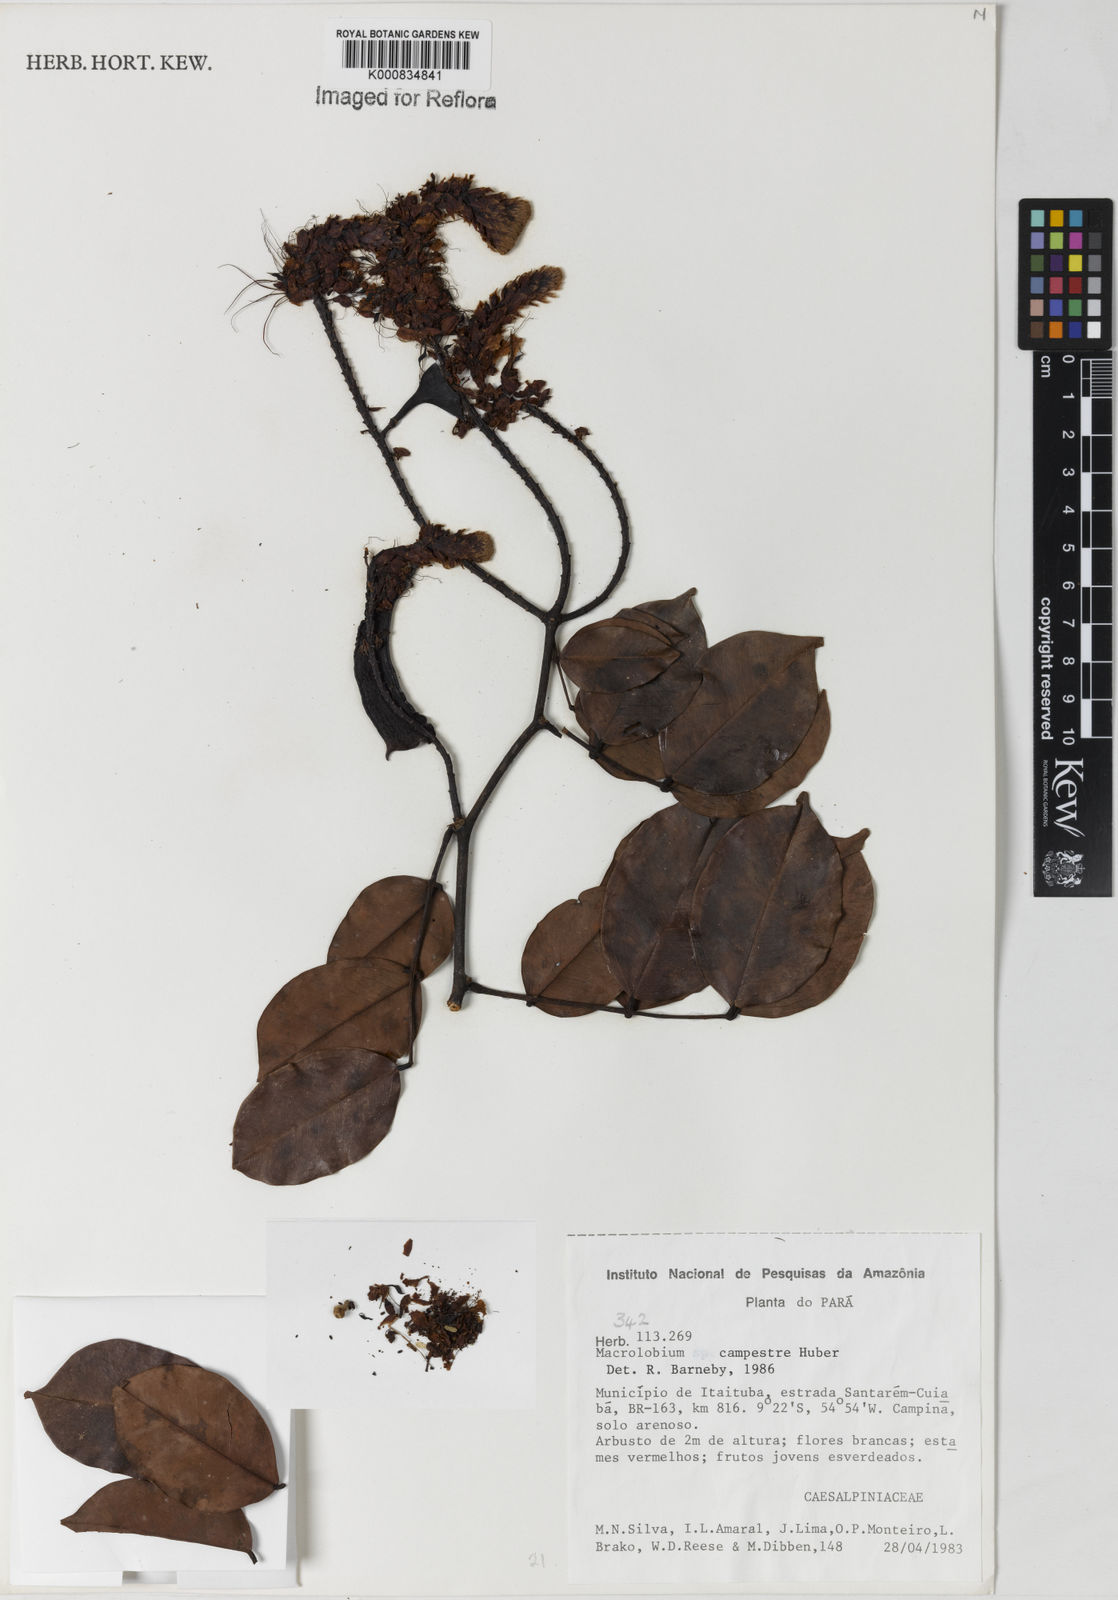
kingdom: Plantae
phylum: Tracheophyta
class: Magnoliopsida
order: Fabales
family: Fabaceae
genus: Macrolobium
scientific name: Macrolobium campestre
